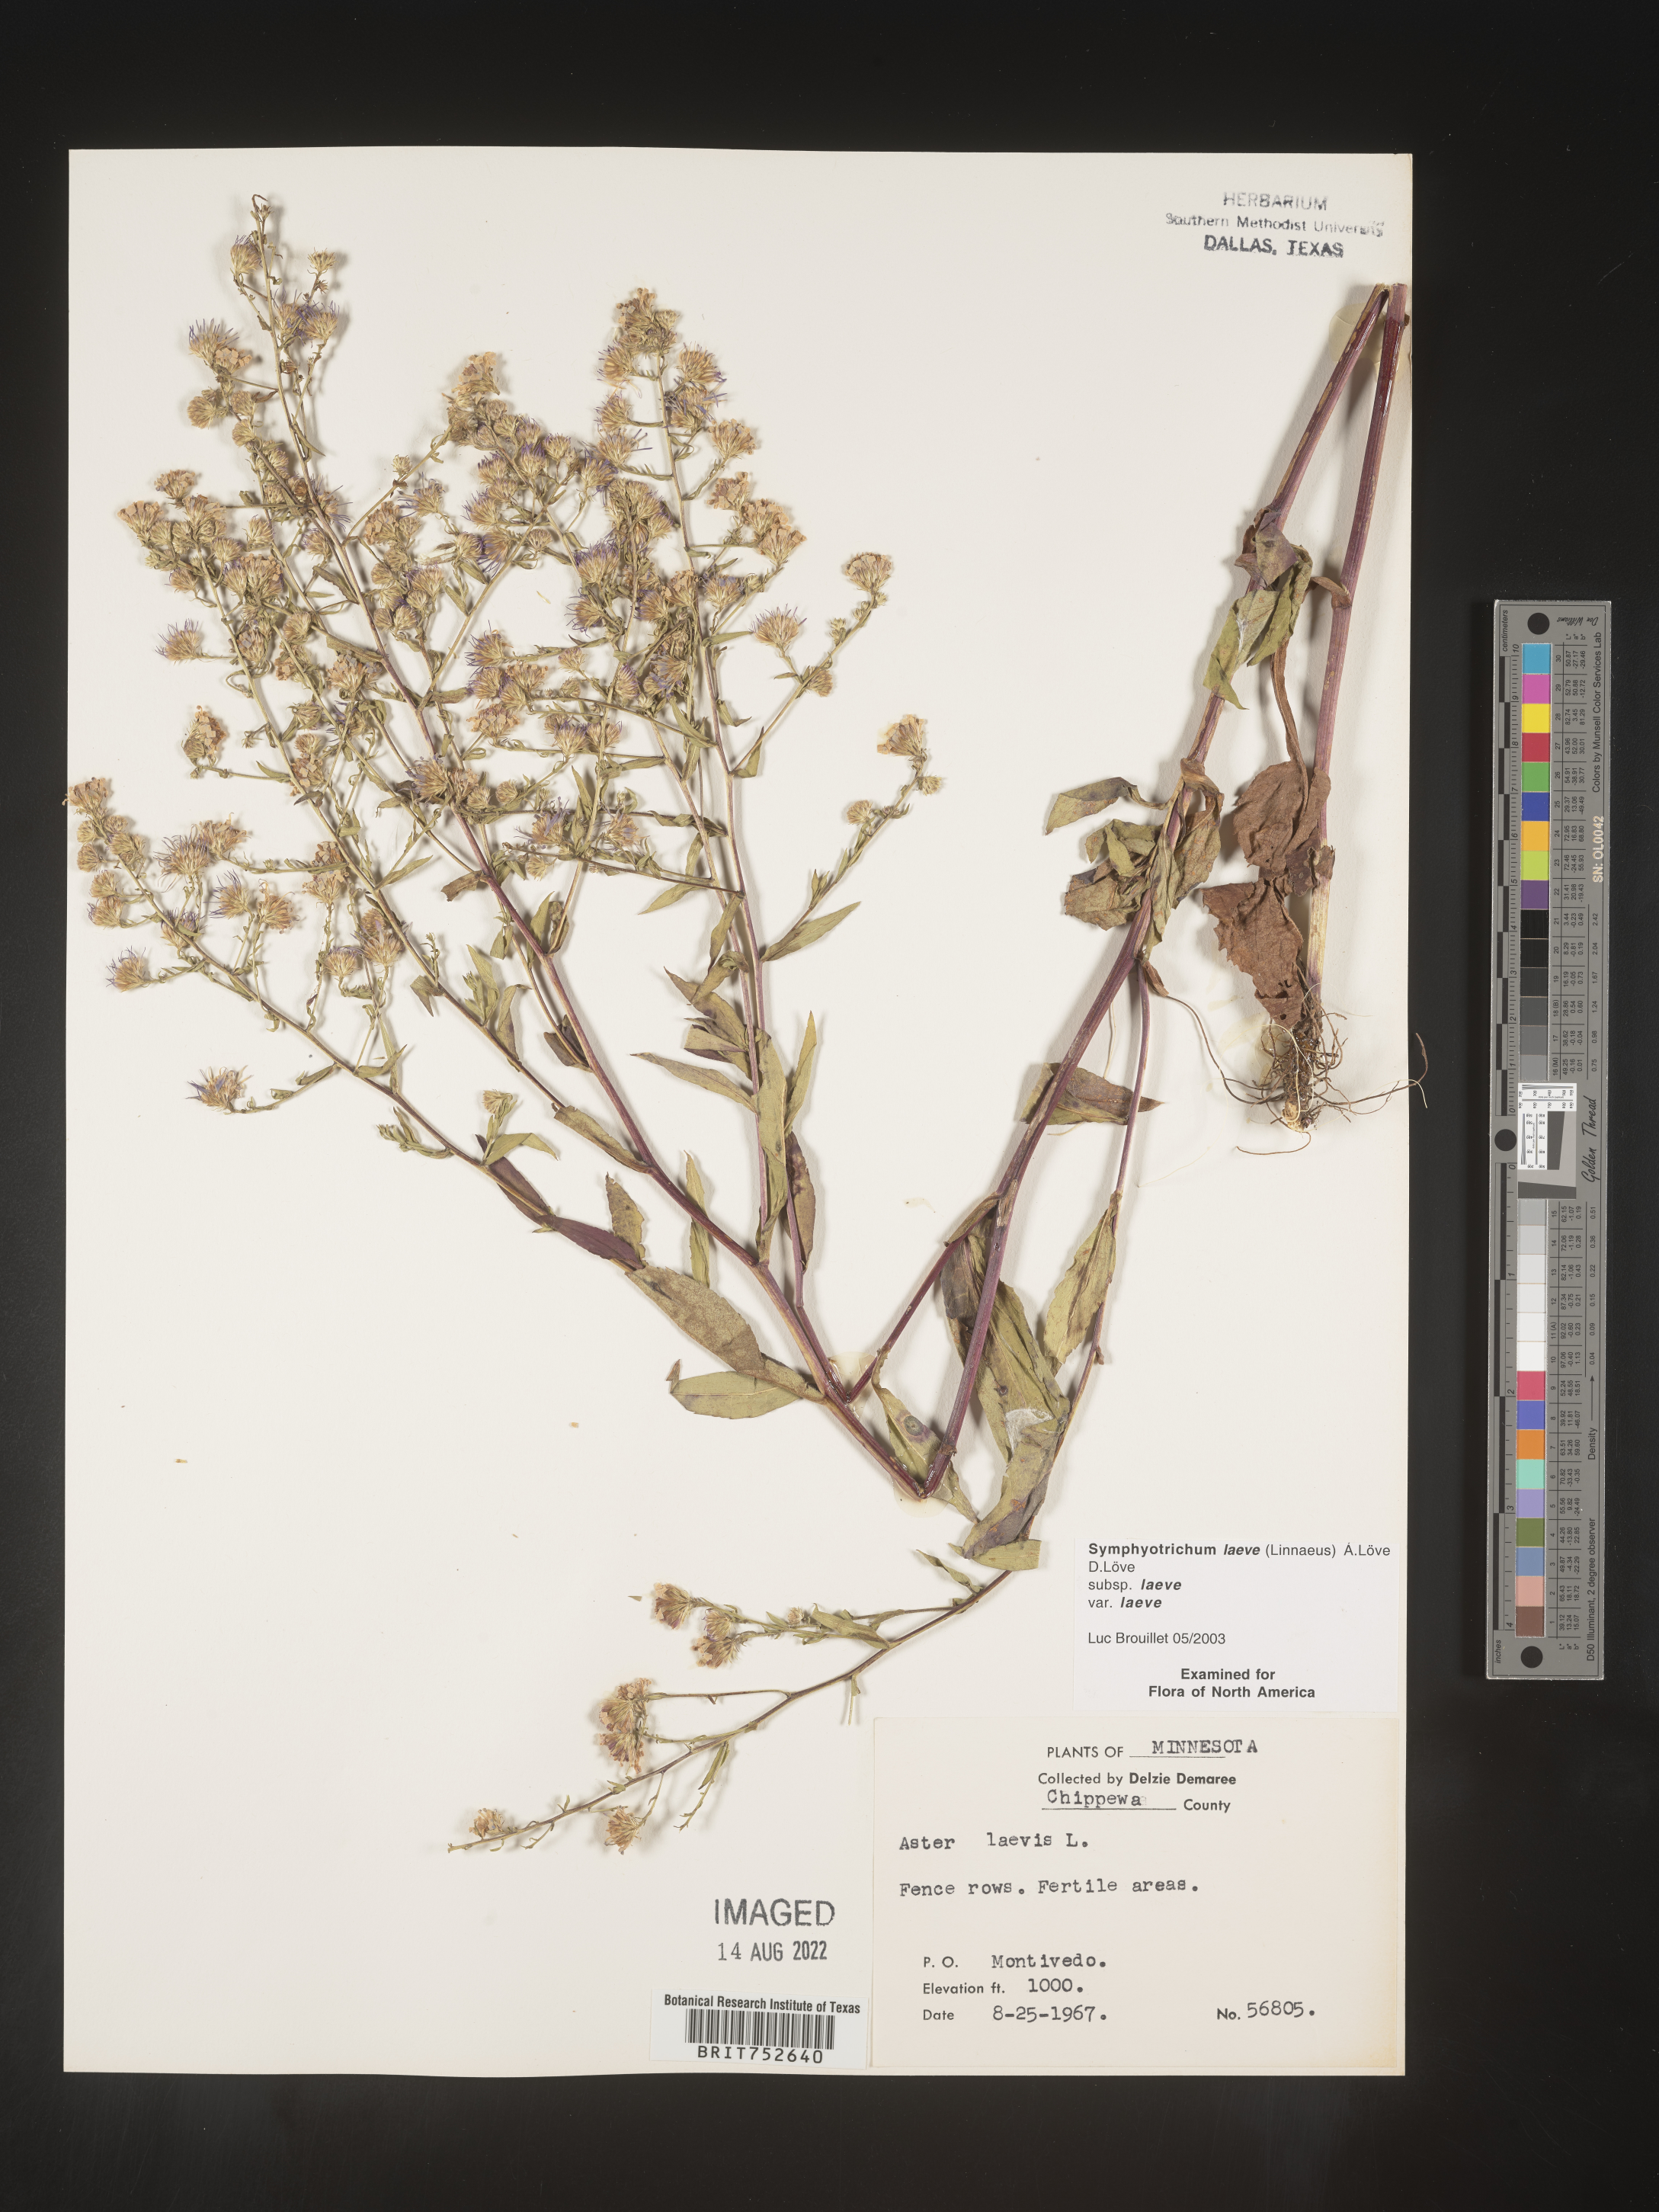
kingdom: Plantae
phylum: Tracheophyta
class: Magnoliopsida
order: Asterales
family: Asteraceae
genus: Symphyotrichum
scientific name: Symphyotrichum laeve
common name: Glaucous aster
